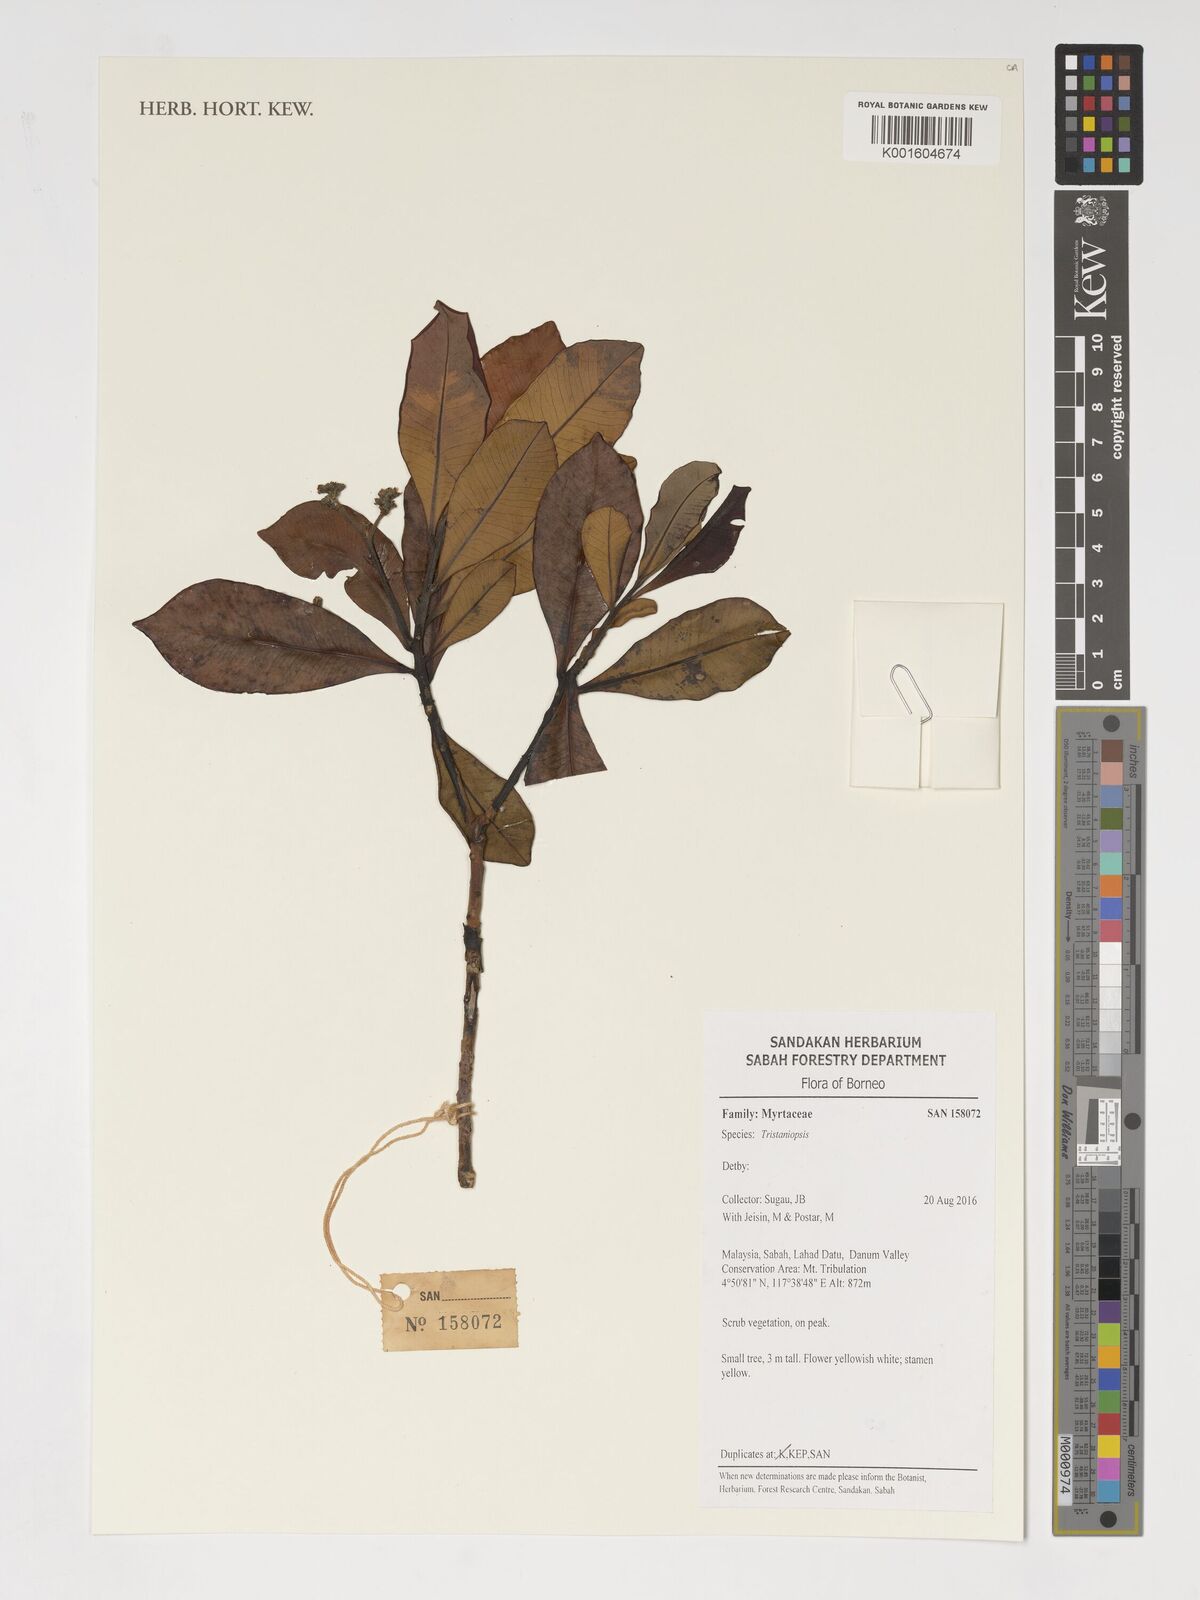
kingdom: Plantae
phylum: Tracheophyta
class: Magnoliopsida
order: Myrtales
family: Myrtaceae
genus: Tristaniopsis
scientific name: Tristaniopsis
